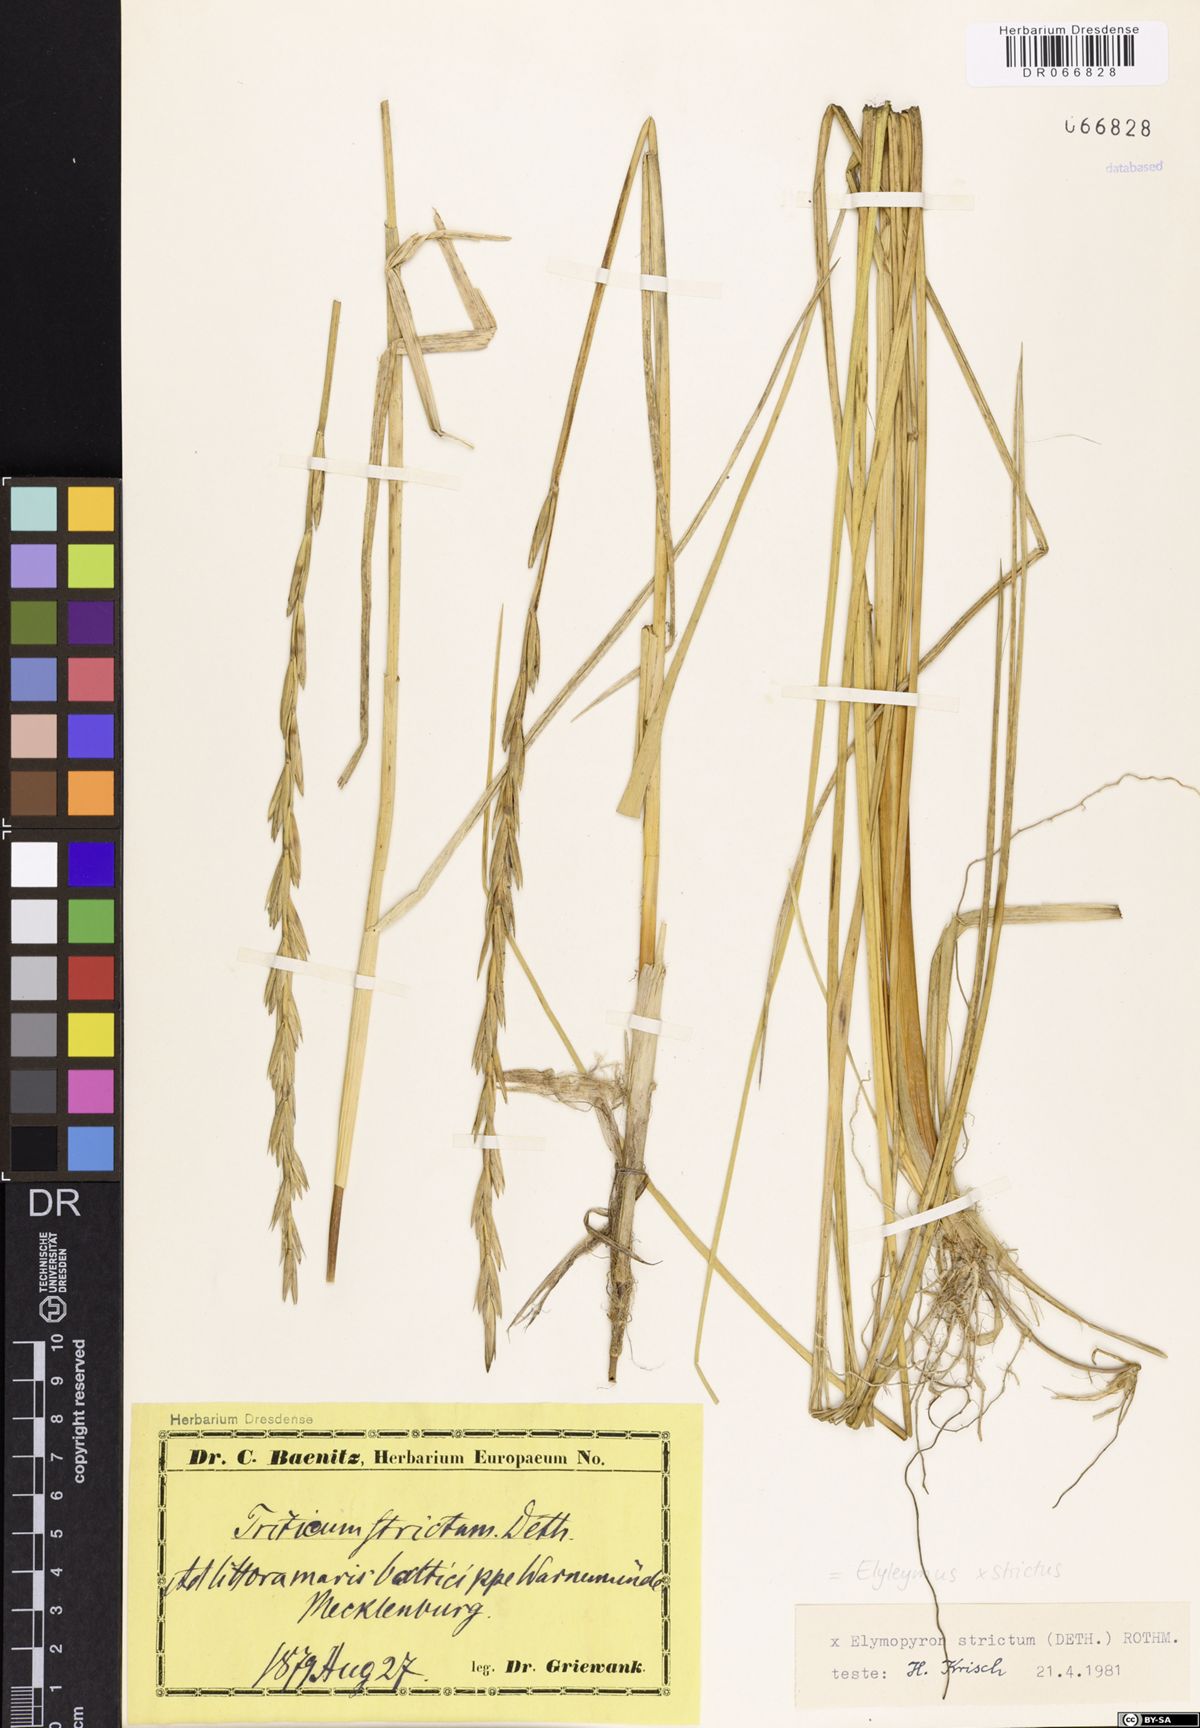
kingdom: Plantae
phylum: Tracheophyta
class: Liliopsida
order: Poales
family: Poaceae
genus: Elyleymus
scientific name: Elyleymus strictus
